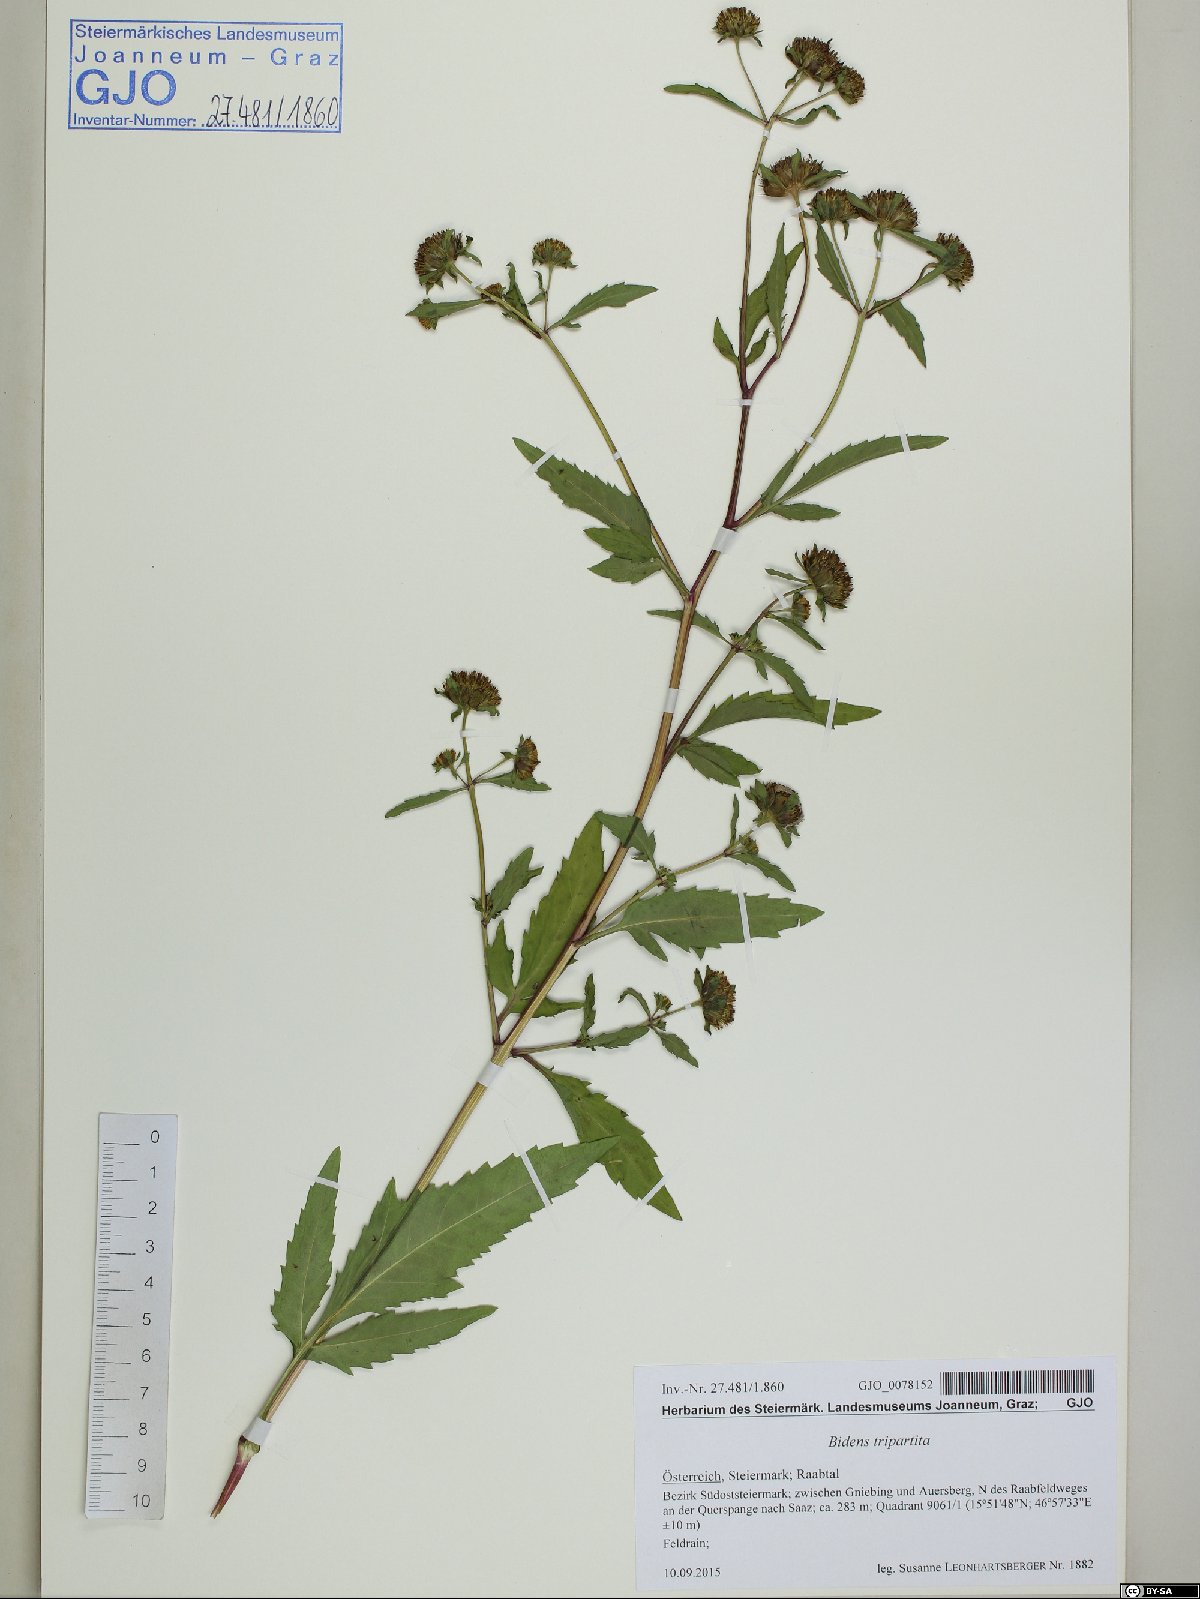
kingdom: Plantae
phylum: Tracheophyta
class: Magnoliopsida
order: Asterales
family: Asteraceae
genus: Bidens
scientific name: Bidens tripartita
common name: Trifid bur-marigold
